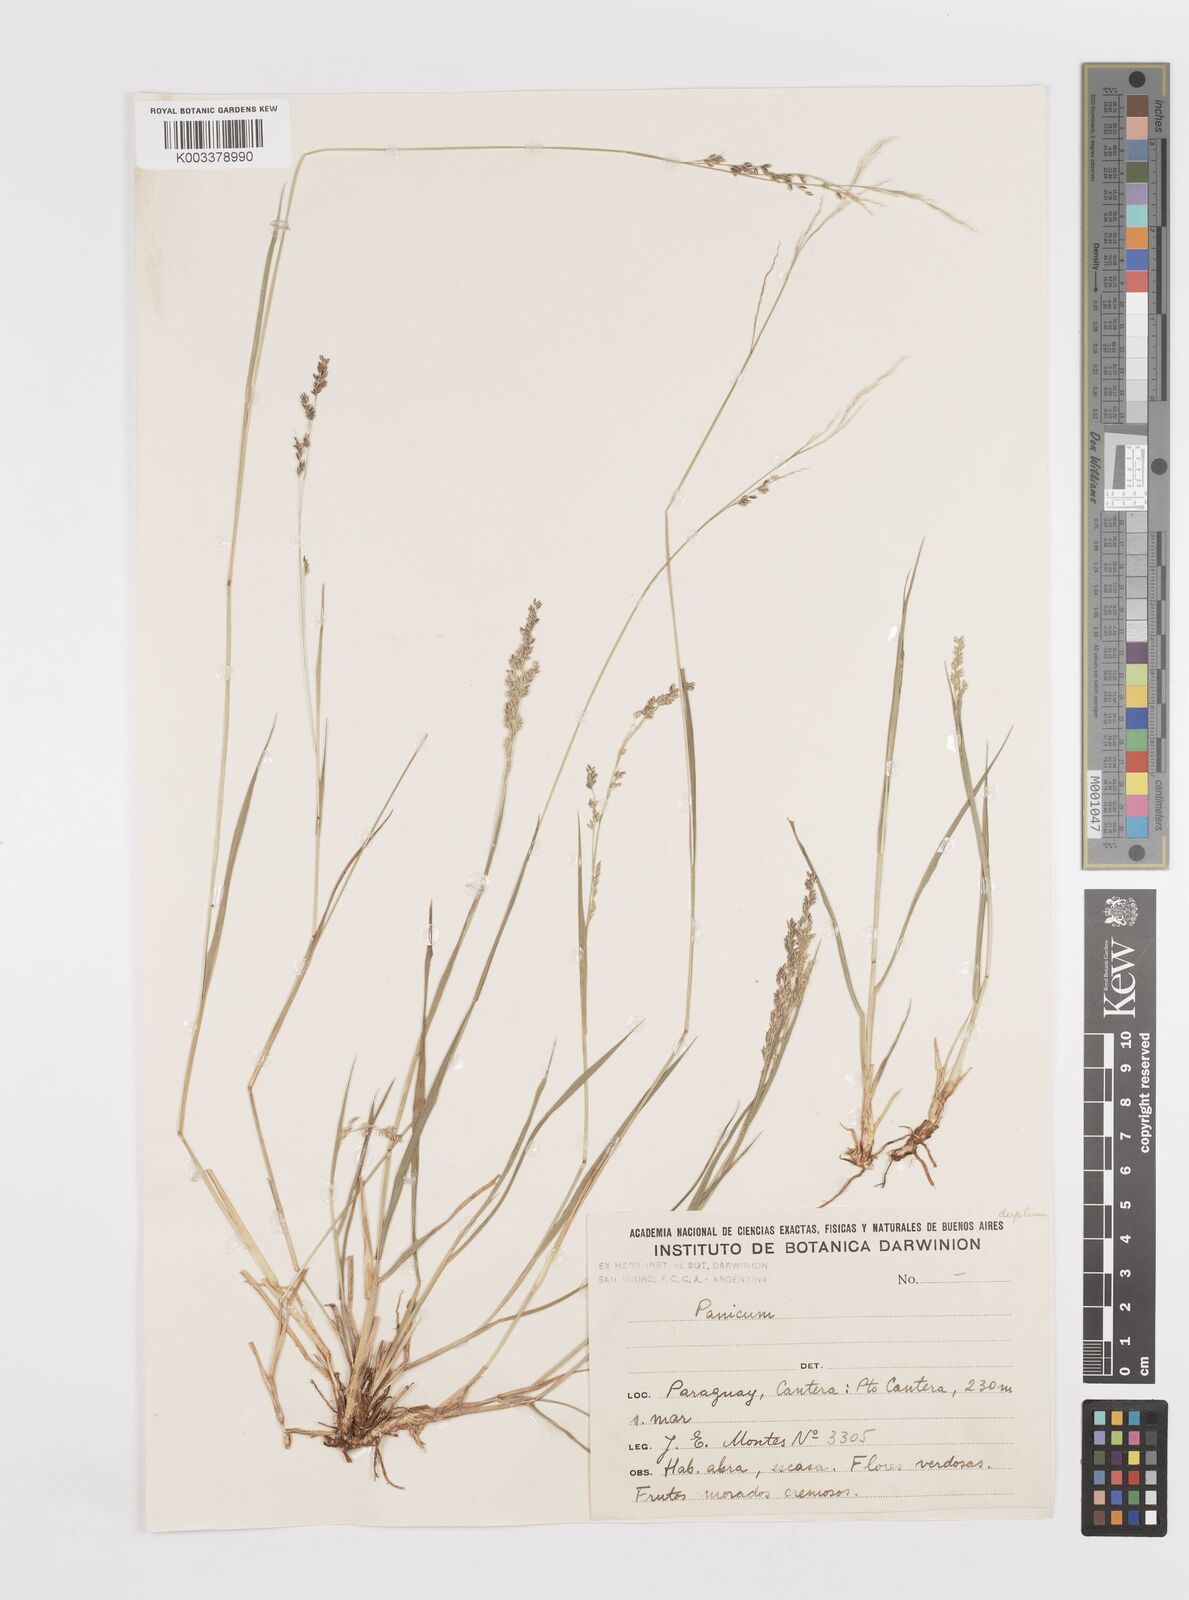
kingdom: Plantae
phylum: Tracheophyta
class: Liliopsida
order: Poales
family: Poaceae
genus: Steinchisma
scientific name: Steinchisma hians
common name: Gaping panic grass
